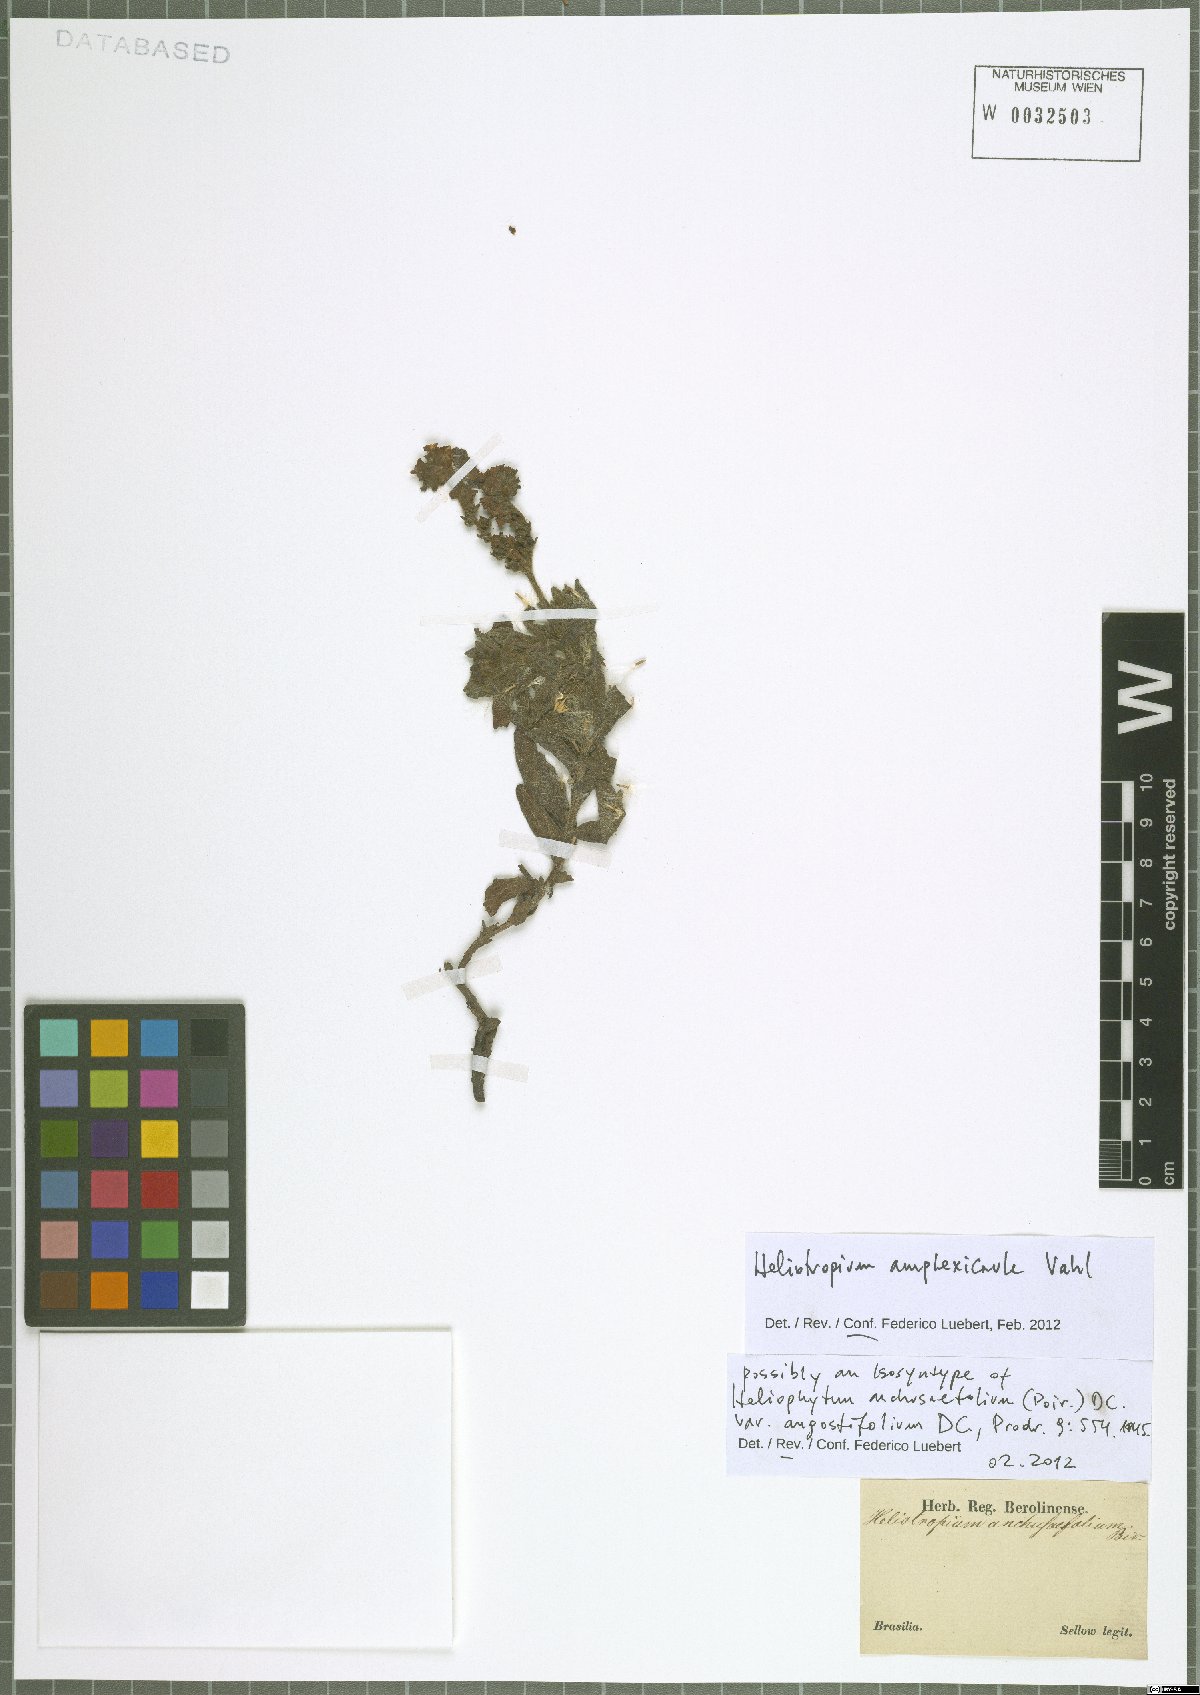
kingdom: Plantae
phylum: Tracheophyta
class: Magnoliopsida
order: Boraginales
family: Heliotropiaceae
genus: Heliotropium
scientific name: Heliotropium amplexicaule
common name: Clasping heliotrope
